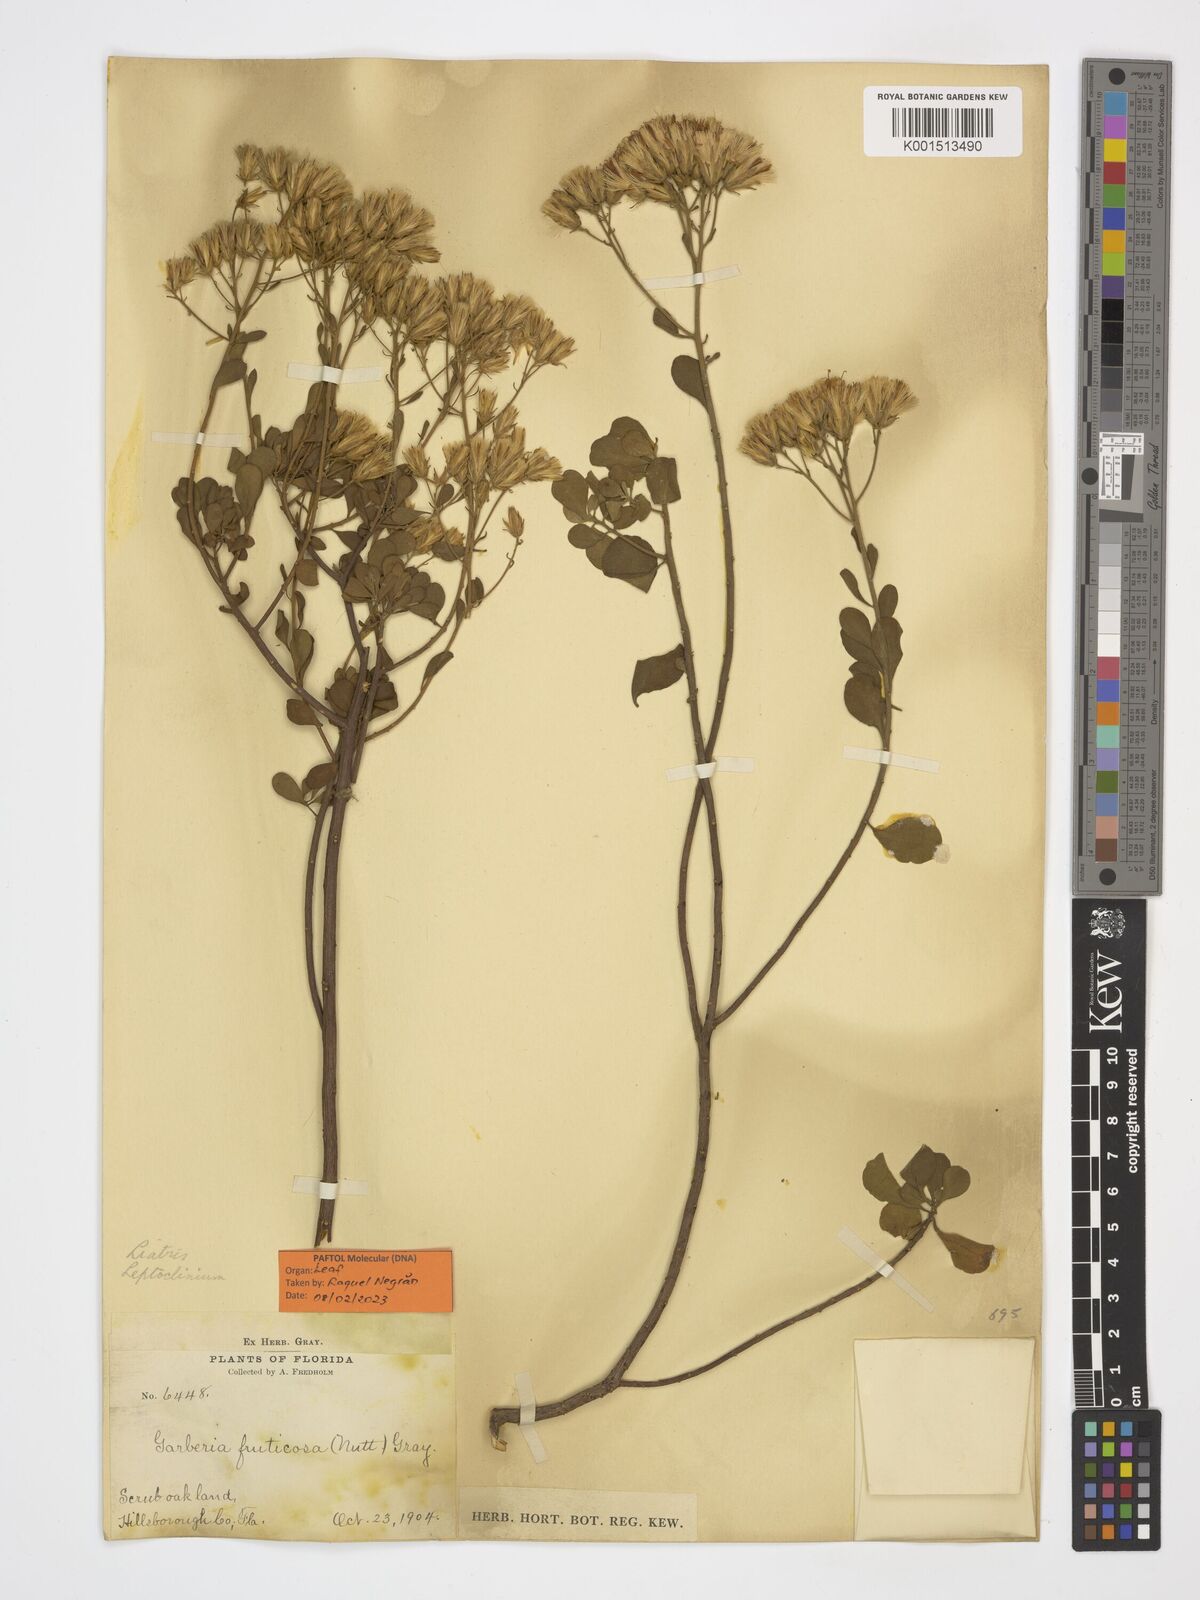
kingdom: Plantae
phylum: Tracheophyta
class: Magnoliopsida
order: Asterales
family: Asteraceae
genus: Garberia
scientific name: Garberia heterophylla
